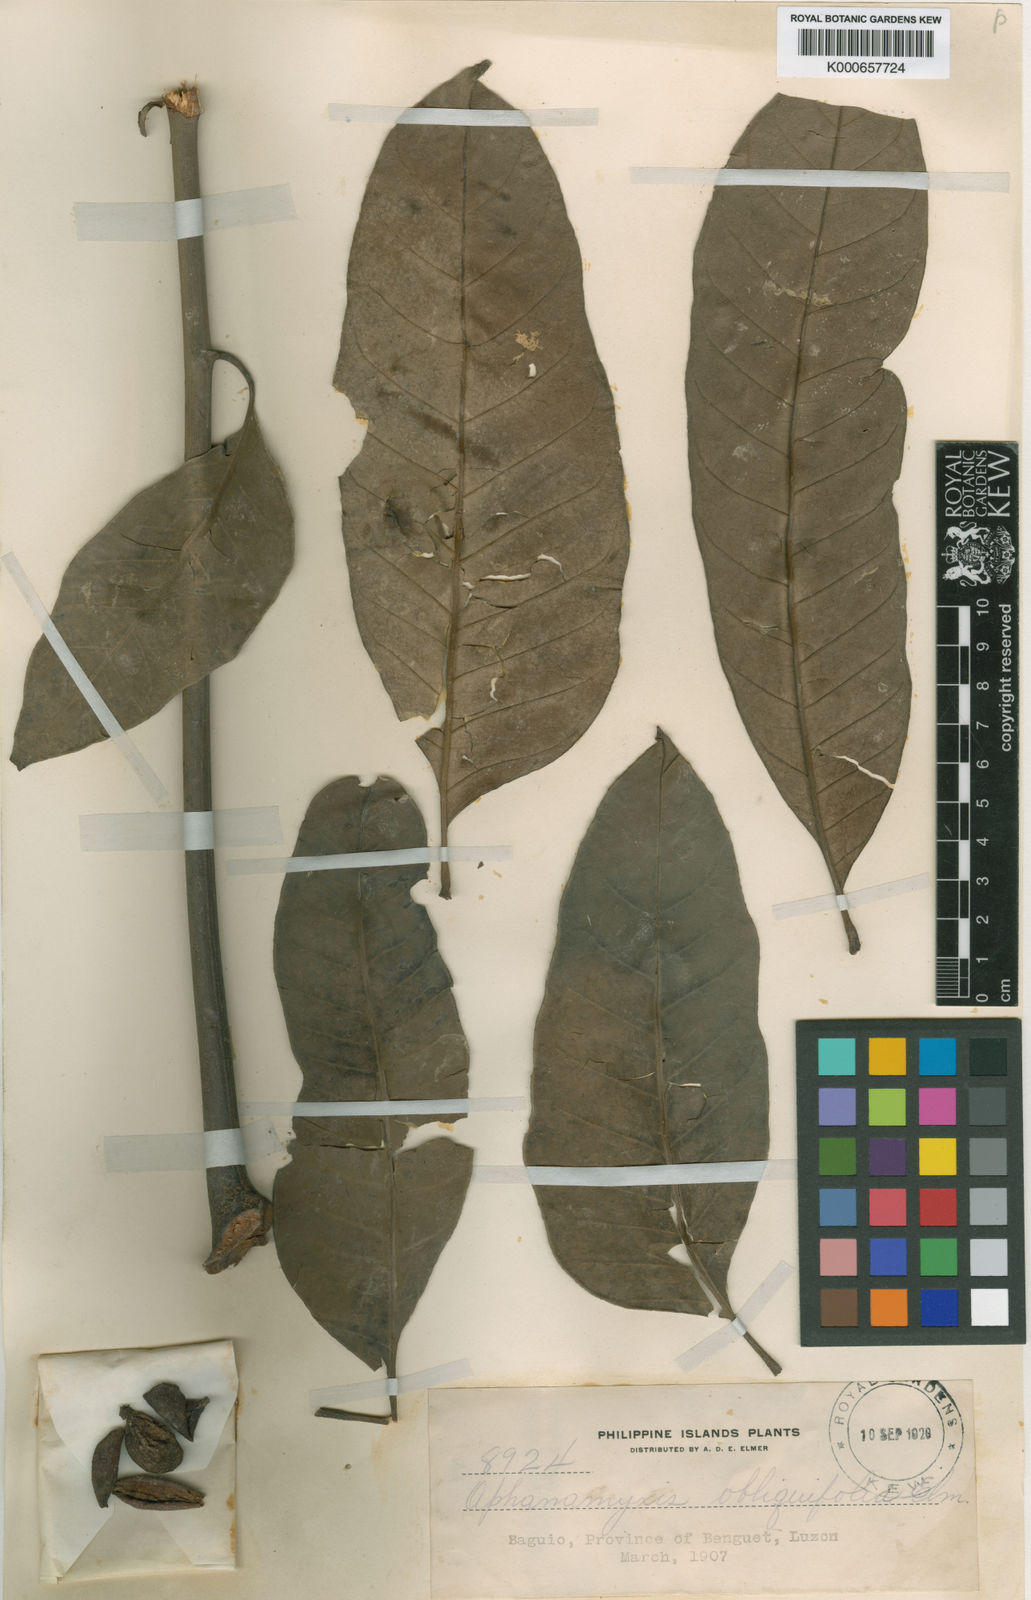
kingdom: Plantae
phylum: Tracheophyta
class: Magnoliopsida
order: Sapindales
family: Meliaceae
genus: Aphanamixis
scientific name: Aphanamixis polystachya
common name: Pithraj tree
